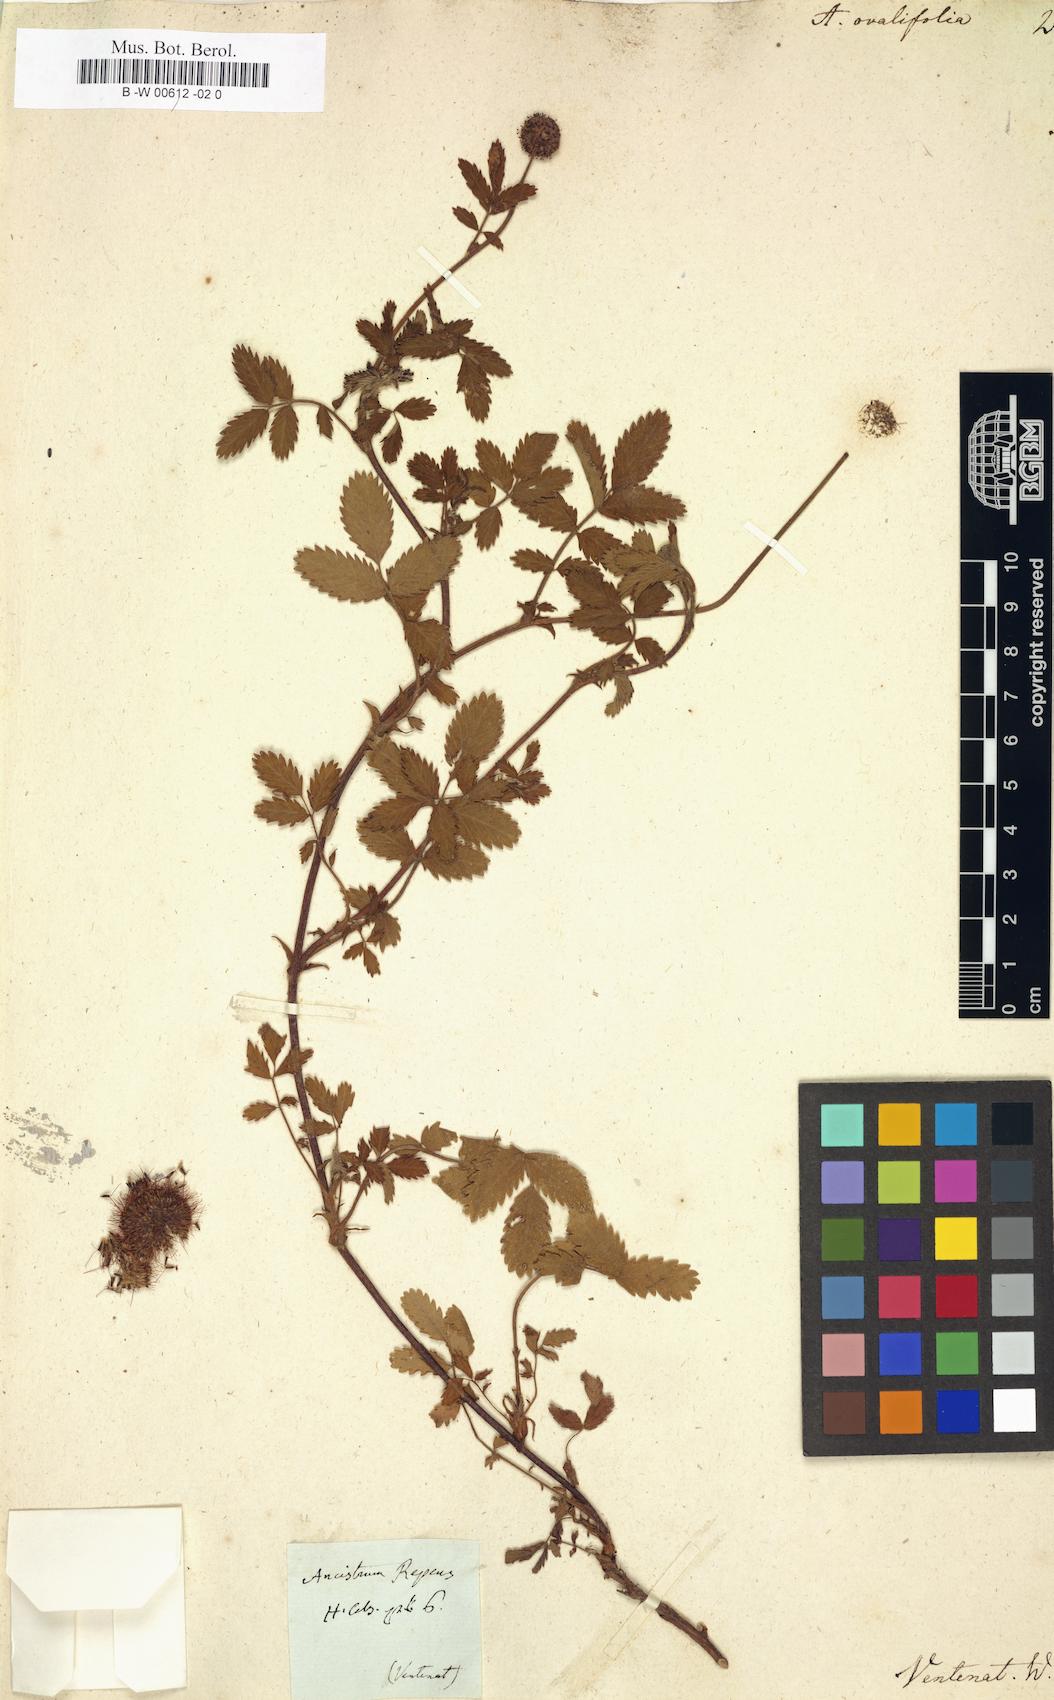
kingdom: Plantae
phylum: Tracheophyta
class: Magnoliopsida
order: Rosales
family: Rosaceae
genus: Acaena
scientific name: Acaena ovalifolia
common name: Two-spined acaena
